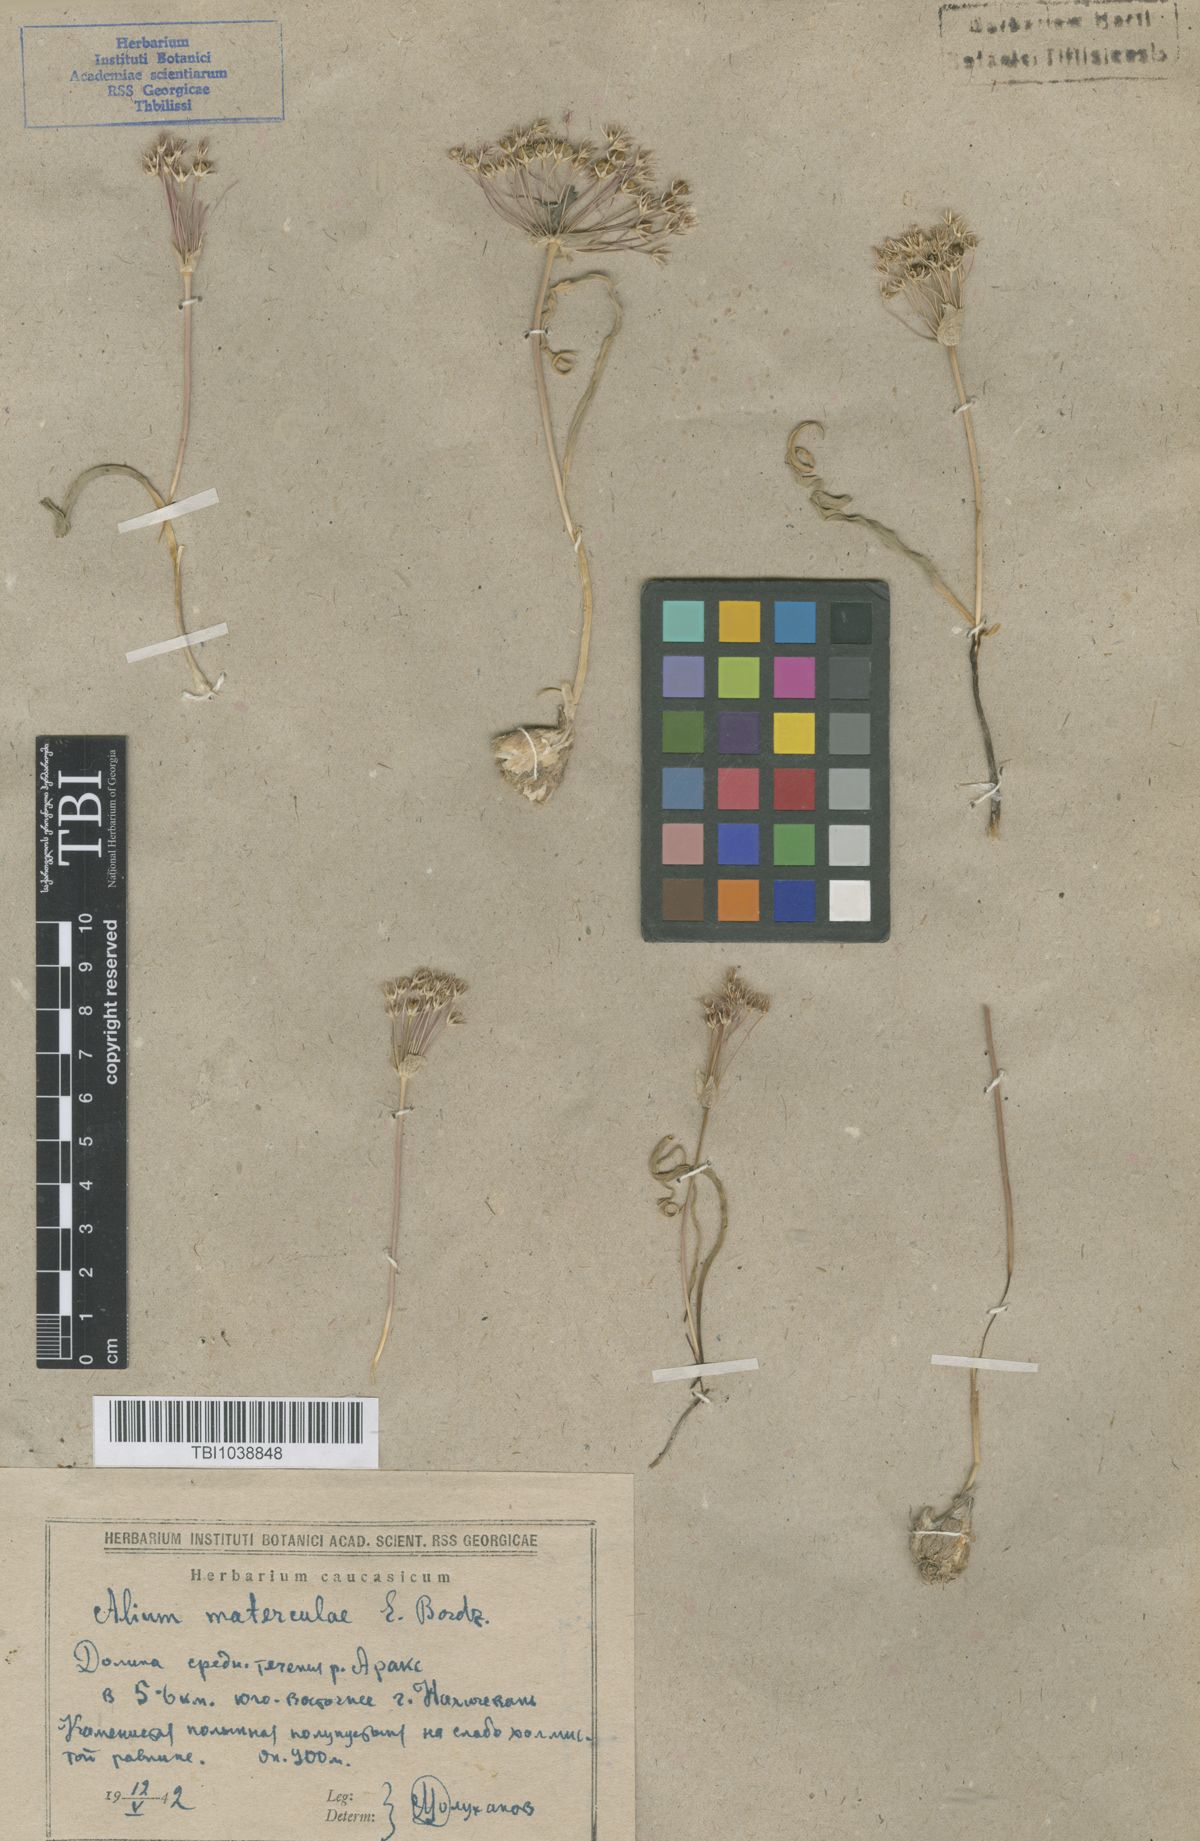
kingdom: Plantae
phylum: Tracheophyta
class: Liliopsida
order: Asparagales
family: Amaryllidaceae
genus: Allium
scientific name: Allium materculae
